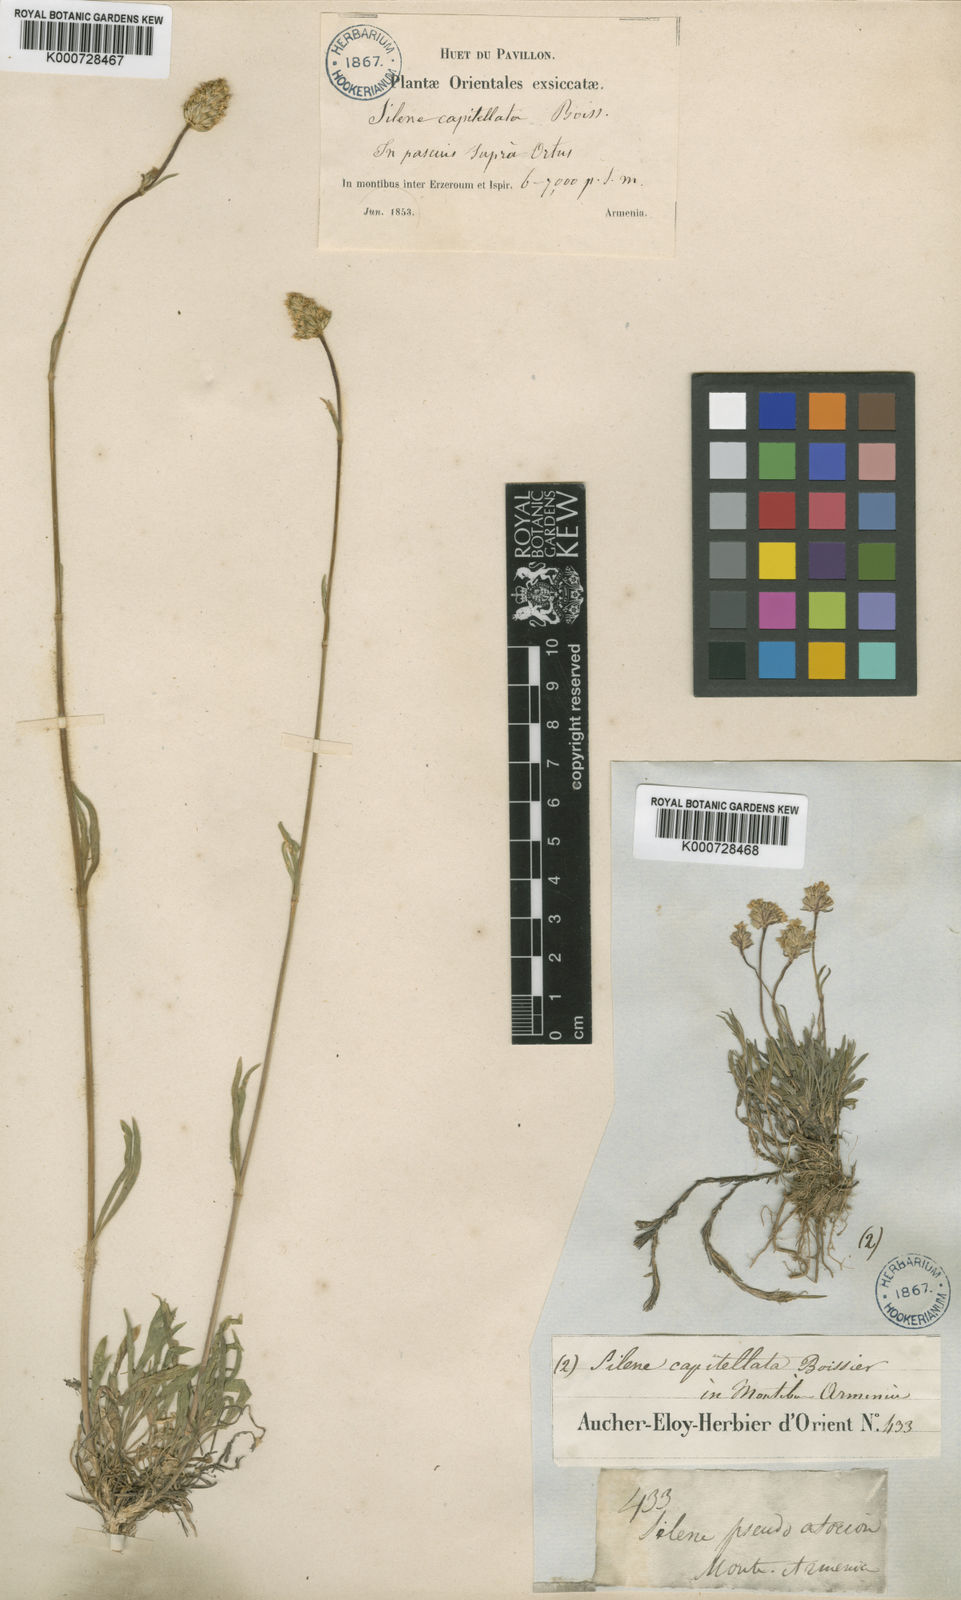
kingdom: Plantae
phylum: Tracheophyta
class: Magnoliopsida
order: Caryophyllales
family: Caryophyllaceae
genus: Silene
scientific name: Silene capitellata
